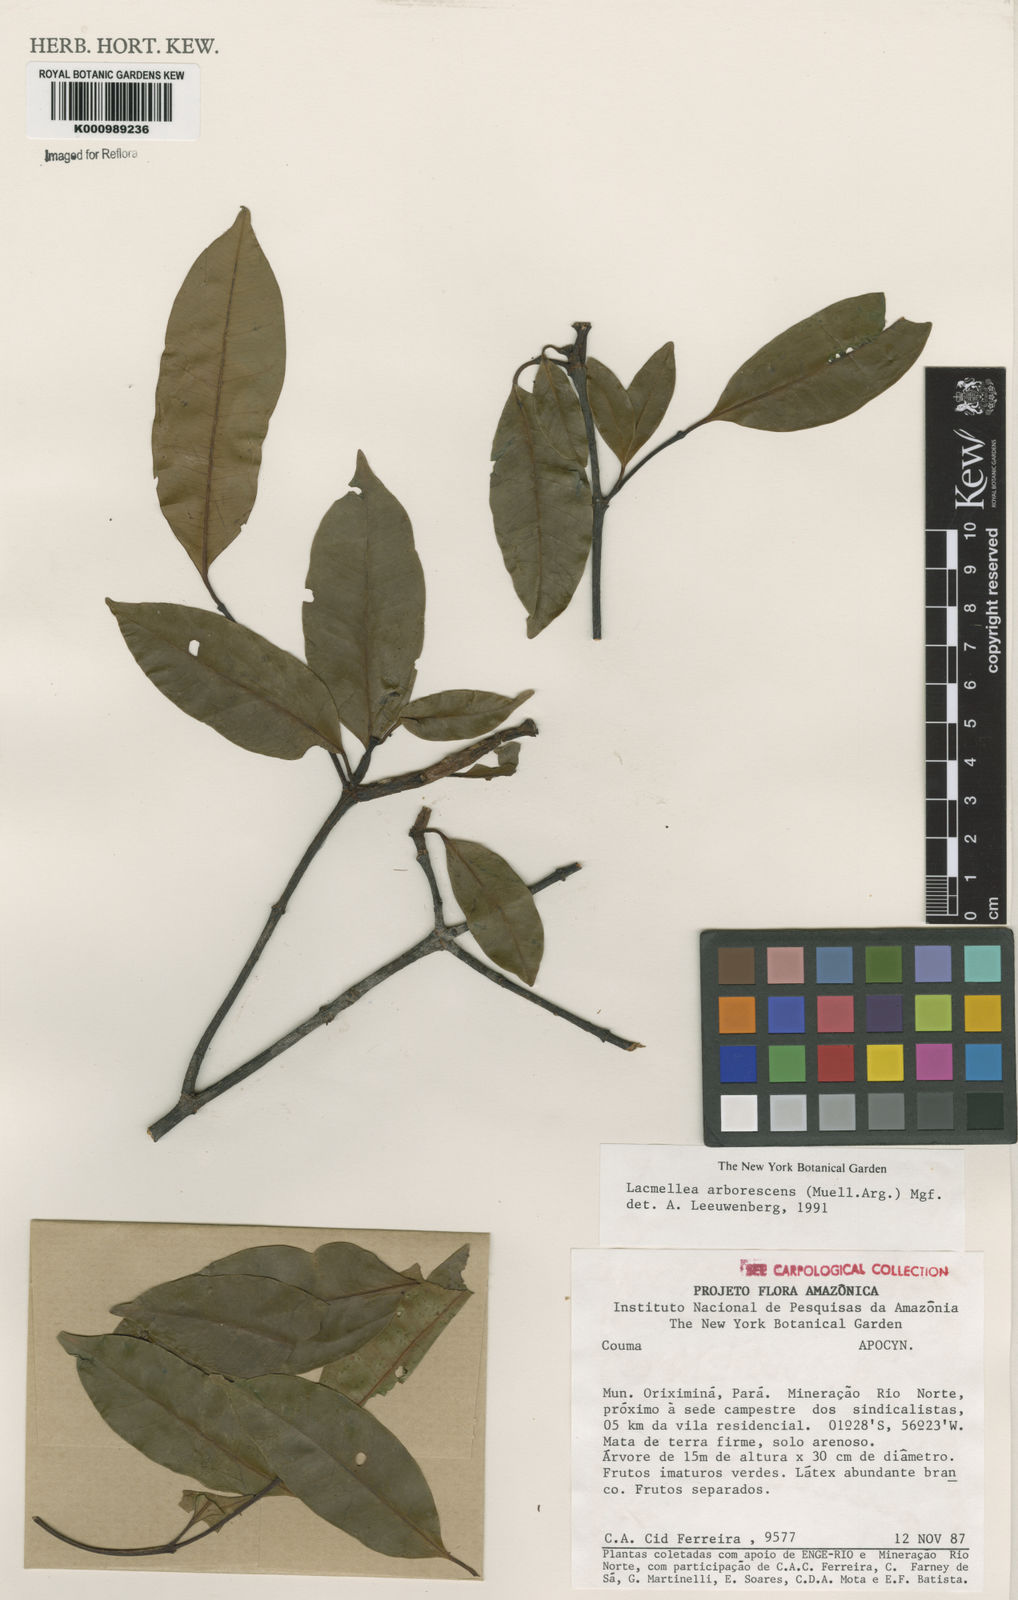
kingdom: Plantae
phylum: Tracheophyta
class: Magnoliopsida
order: Gentianales
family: Apocynaceae
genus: Lacmellea
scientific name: Lacmellea
